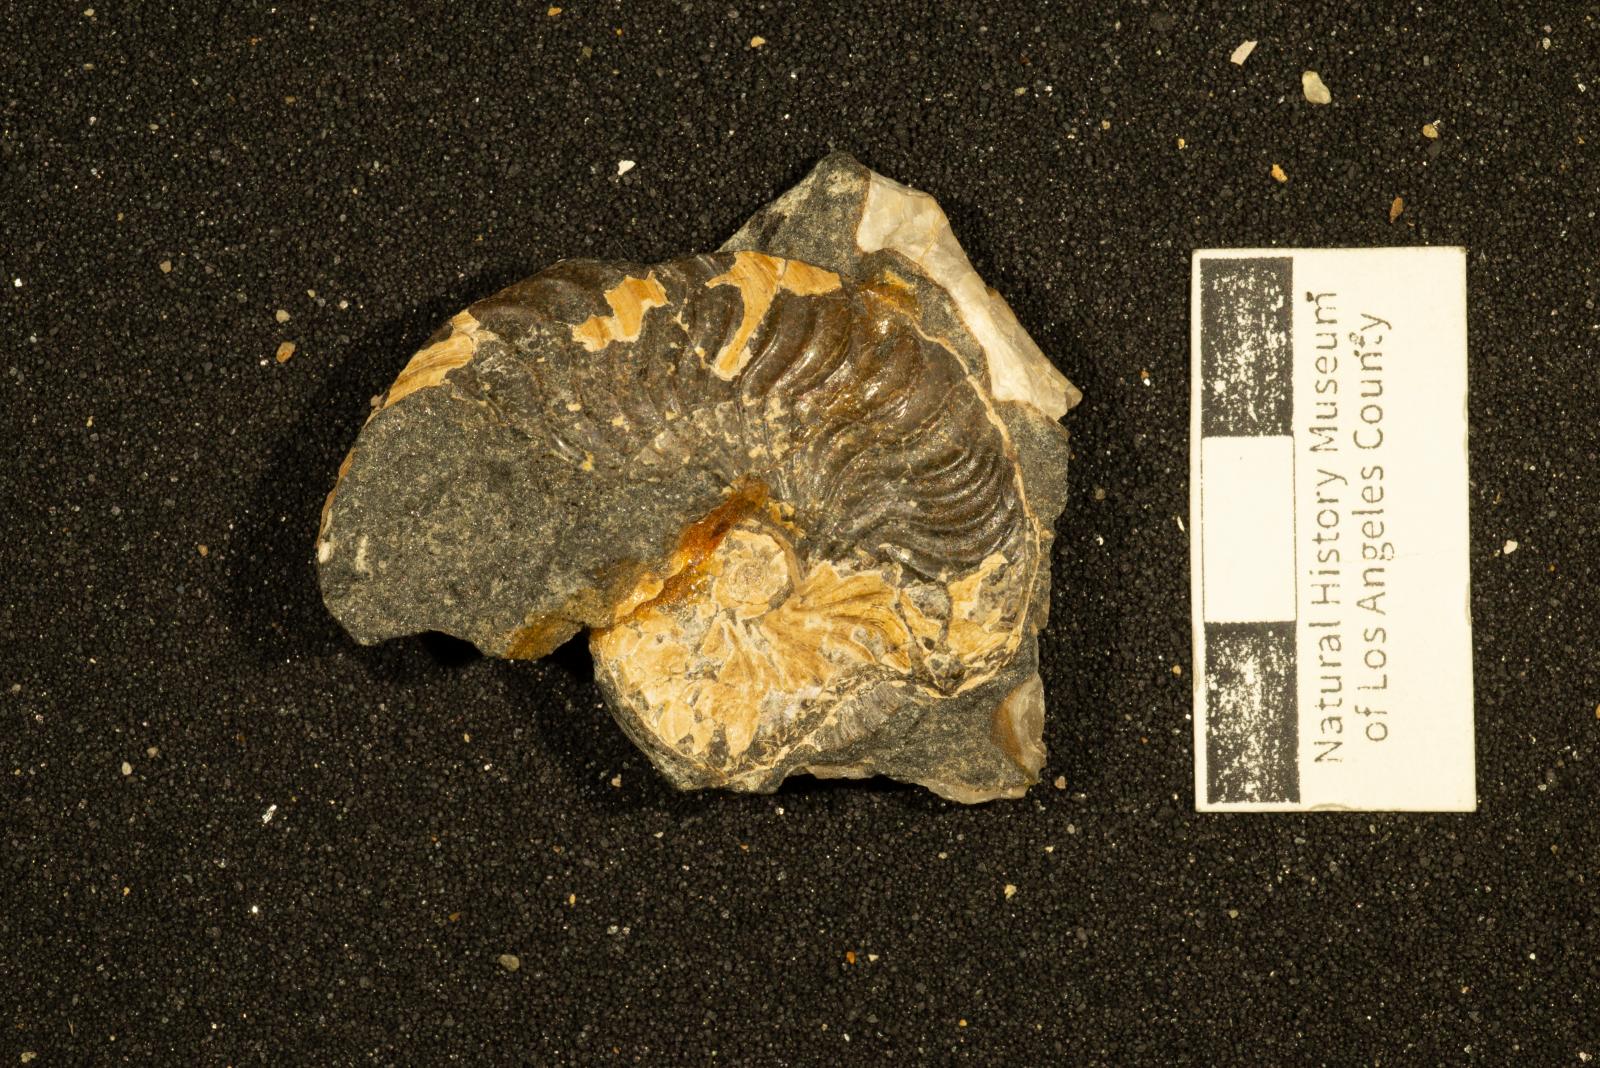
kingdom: Animalia
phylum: Mollusca
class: Cephalopoda
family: Placenticeratidae
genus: Metaplacenticeras
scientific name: Metaplacenticeras Placenticeras pacificum
